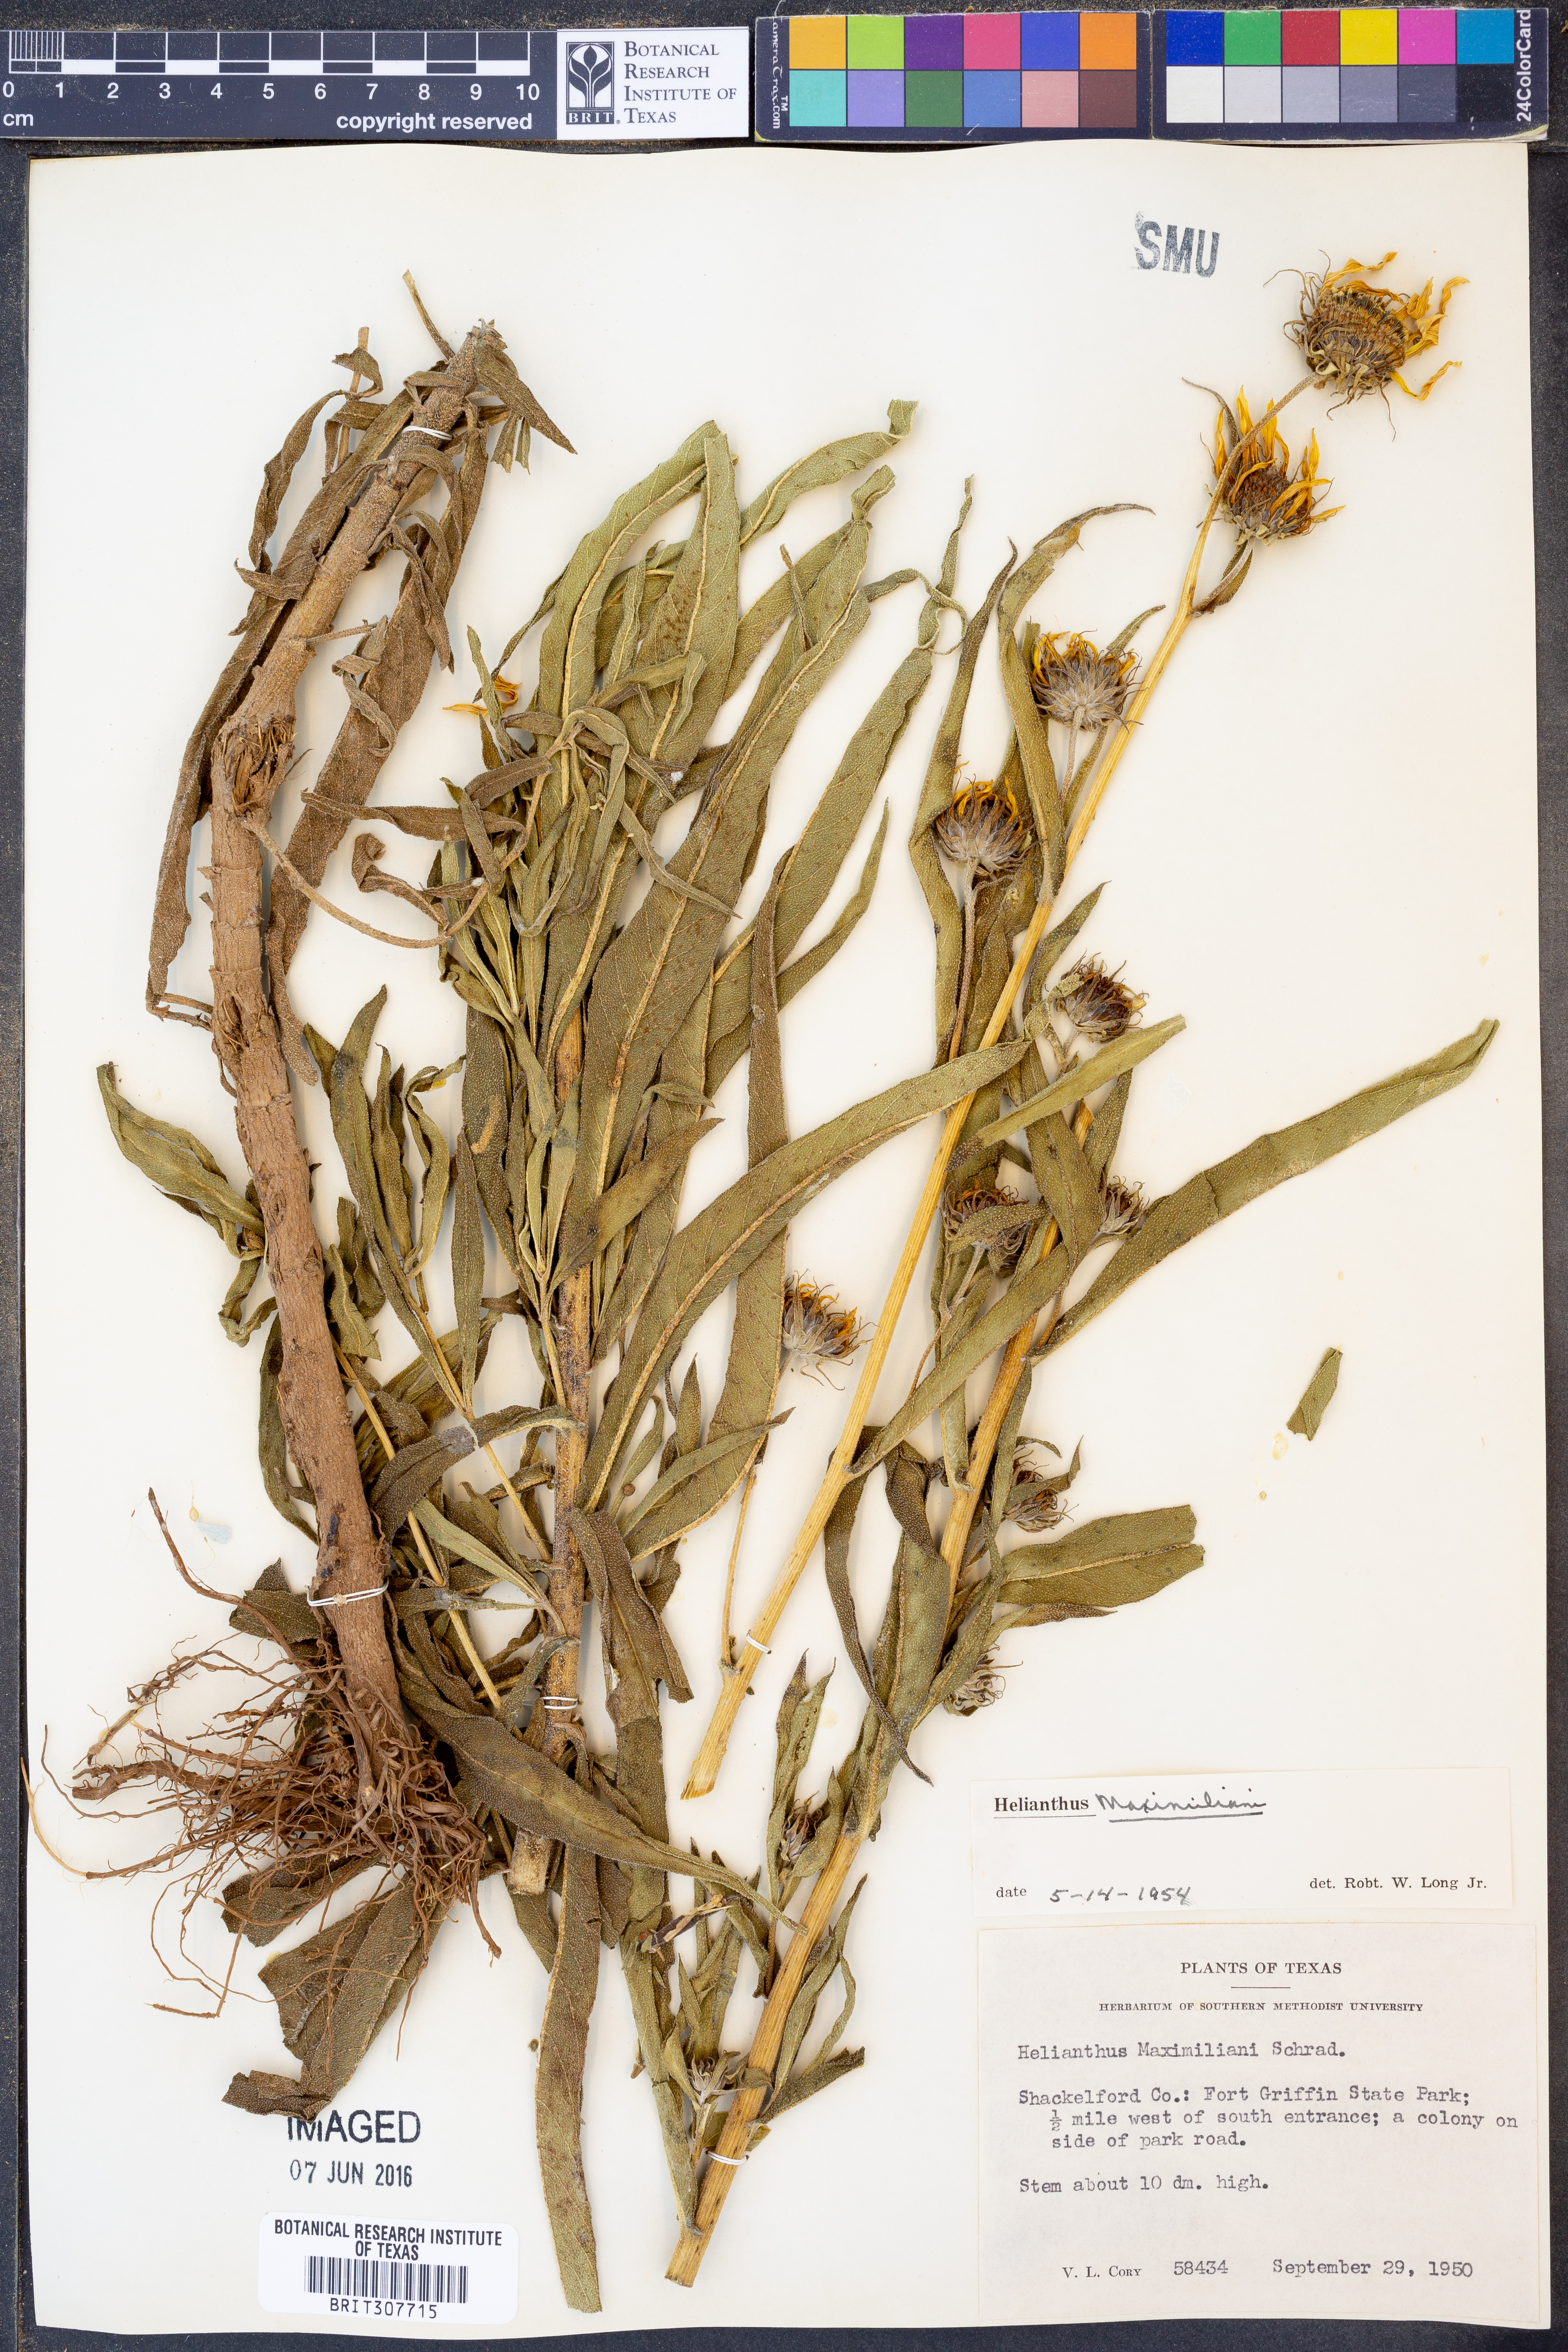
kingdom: Plantae
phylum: Tracheophyta
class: Magnoliopsida
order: Asterales
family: Asteraceae
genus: Helianthus
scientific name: Helianthus maximiliani
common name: Maximilian's sunflower
